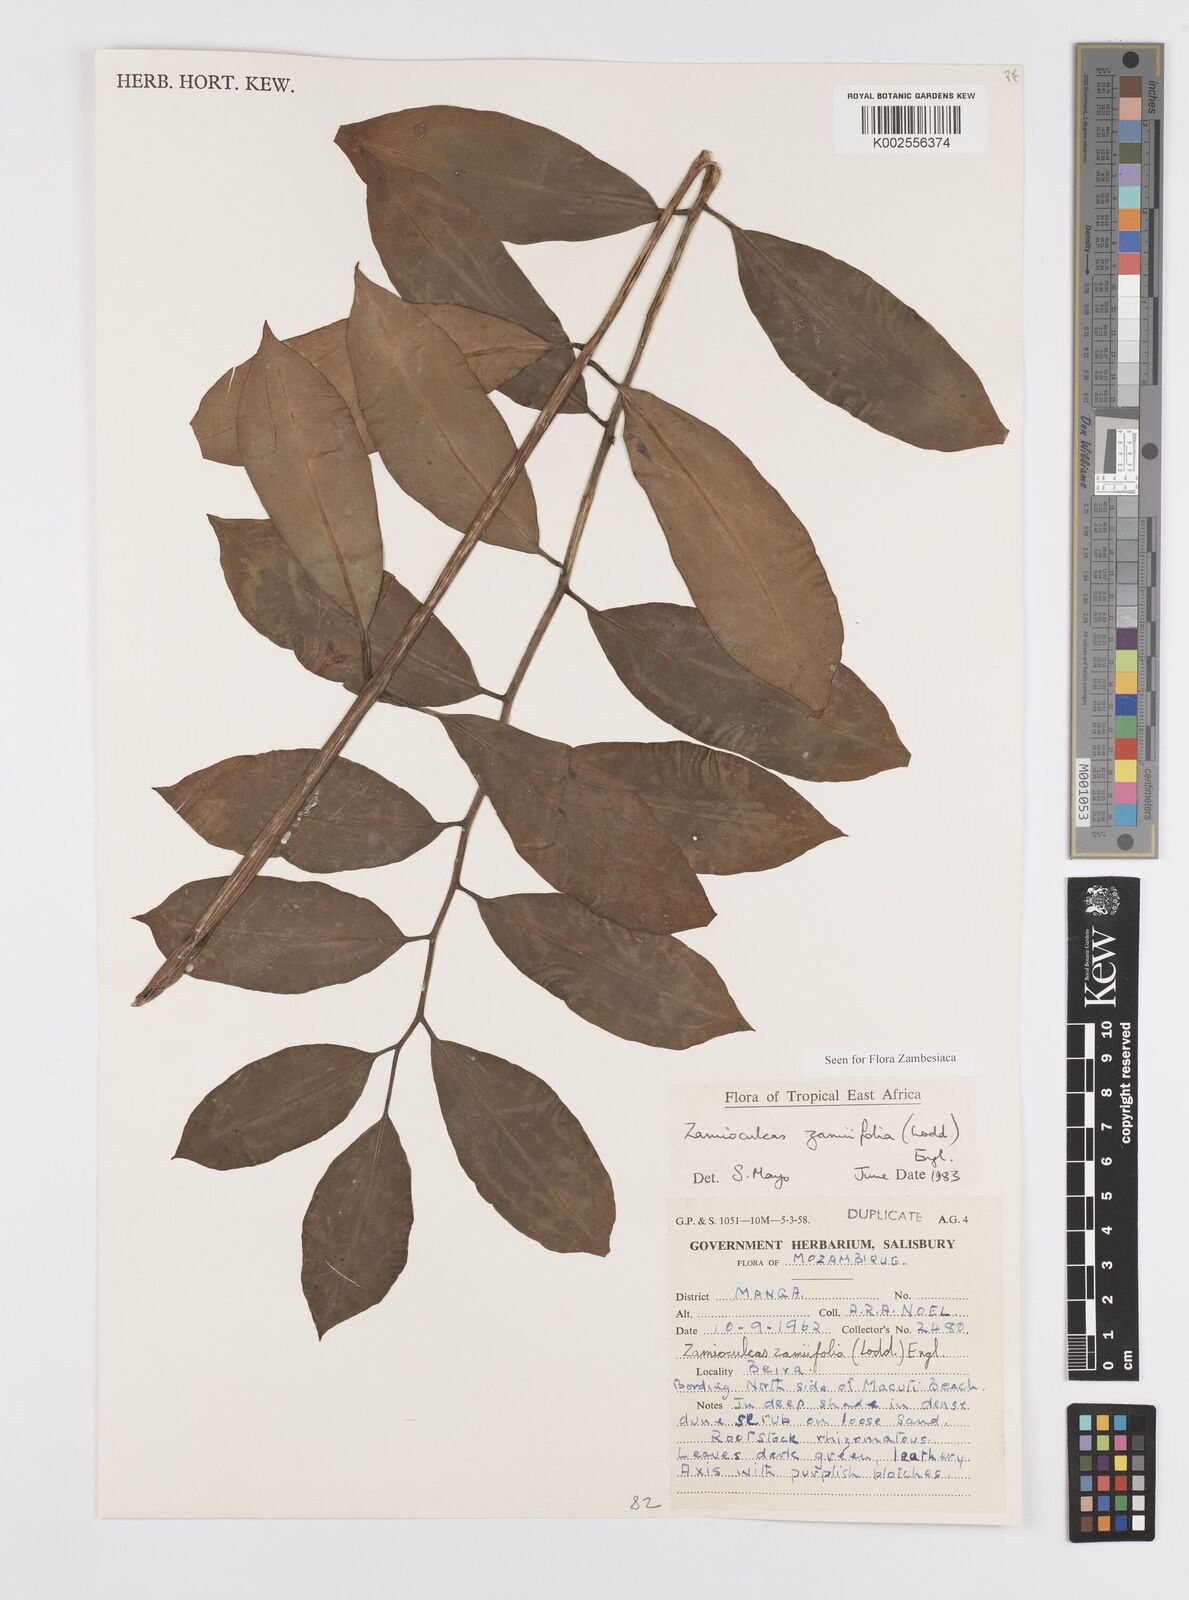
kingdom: Plantae
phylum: Tracheophyta
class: Liliopsida
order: Alismatales
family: Araceae
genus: Zamioculcas
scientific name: Zamioculcas zamiifolia
